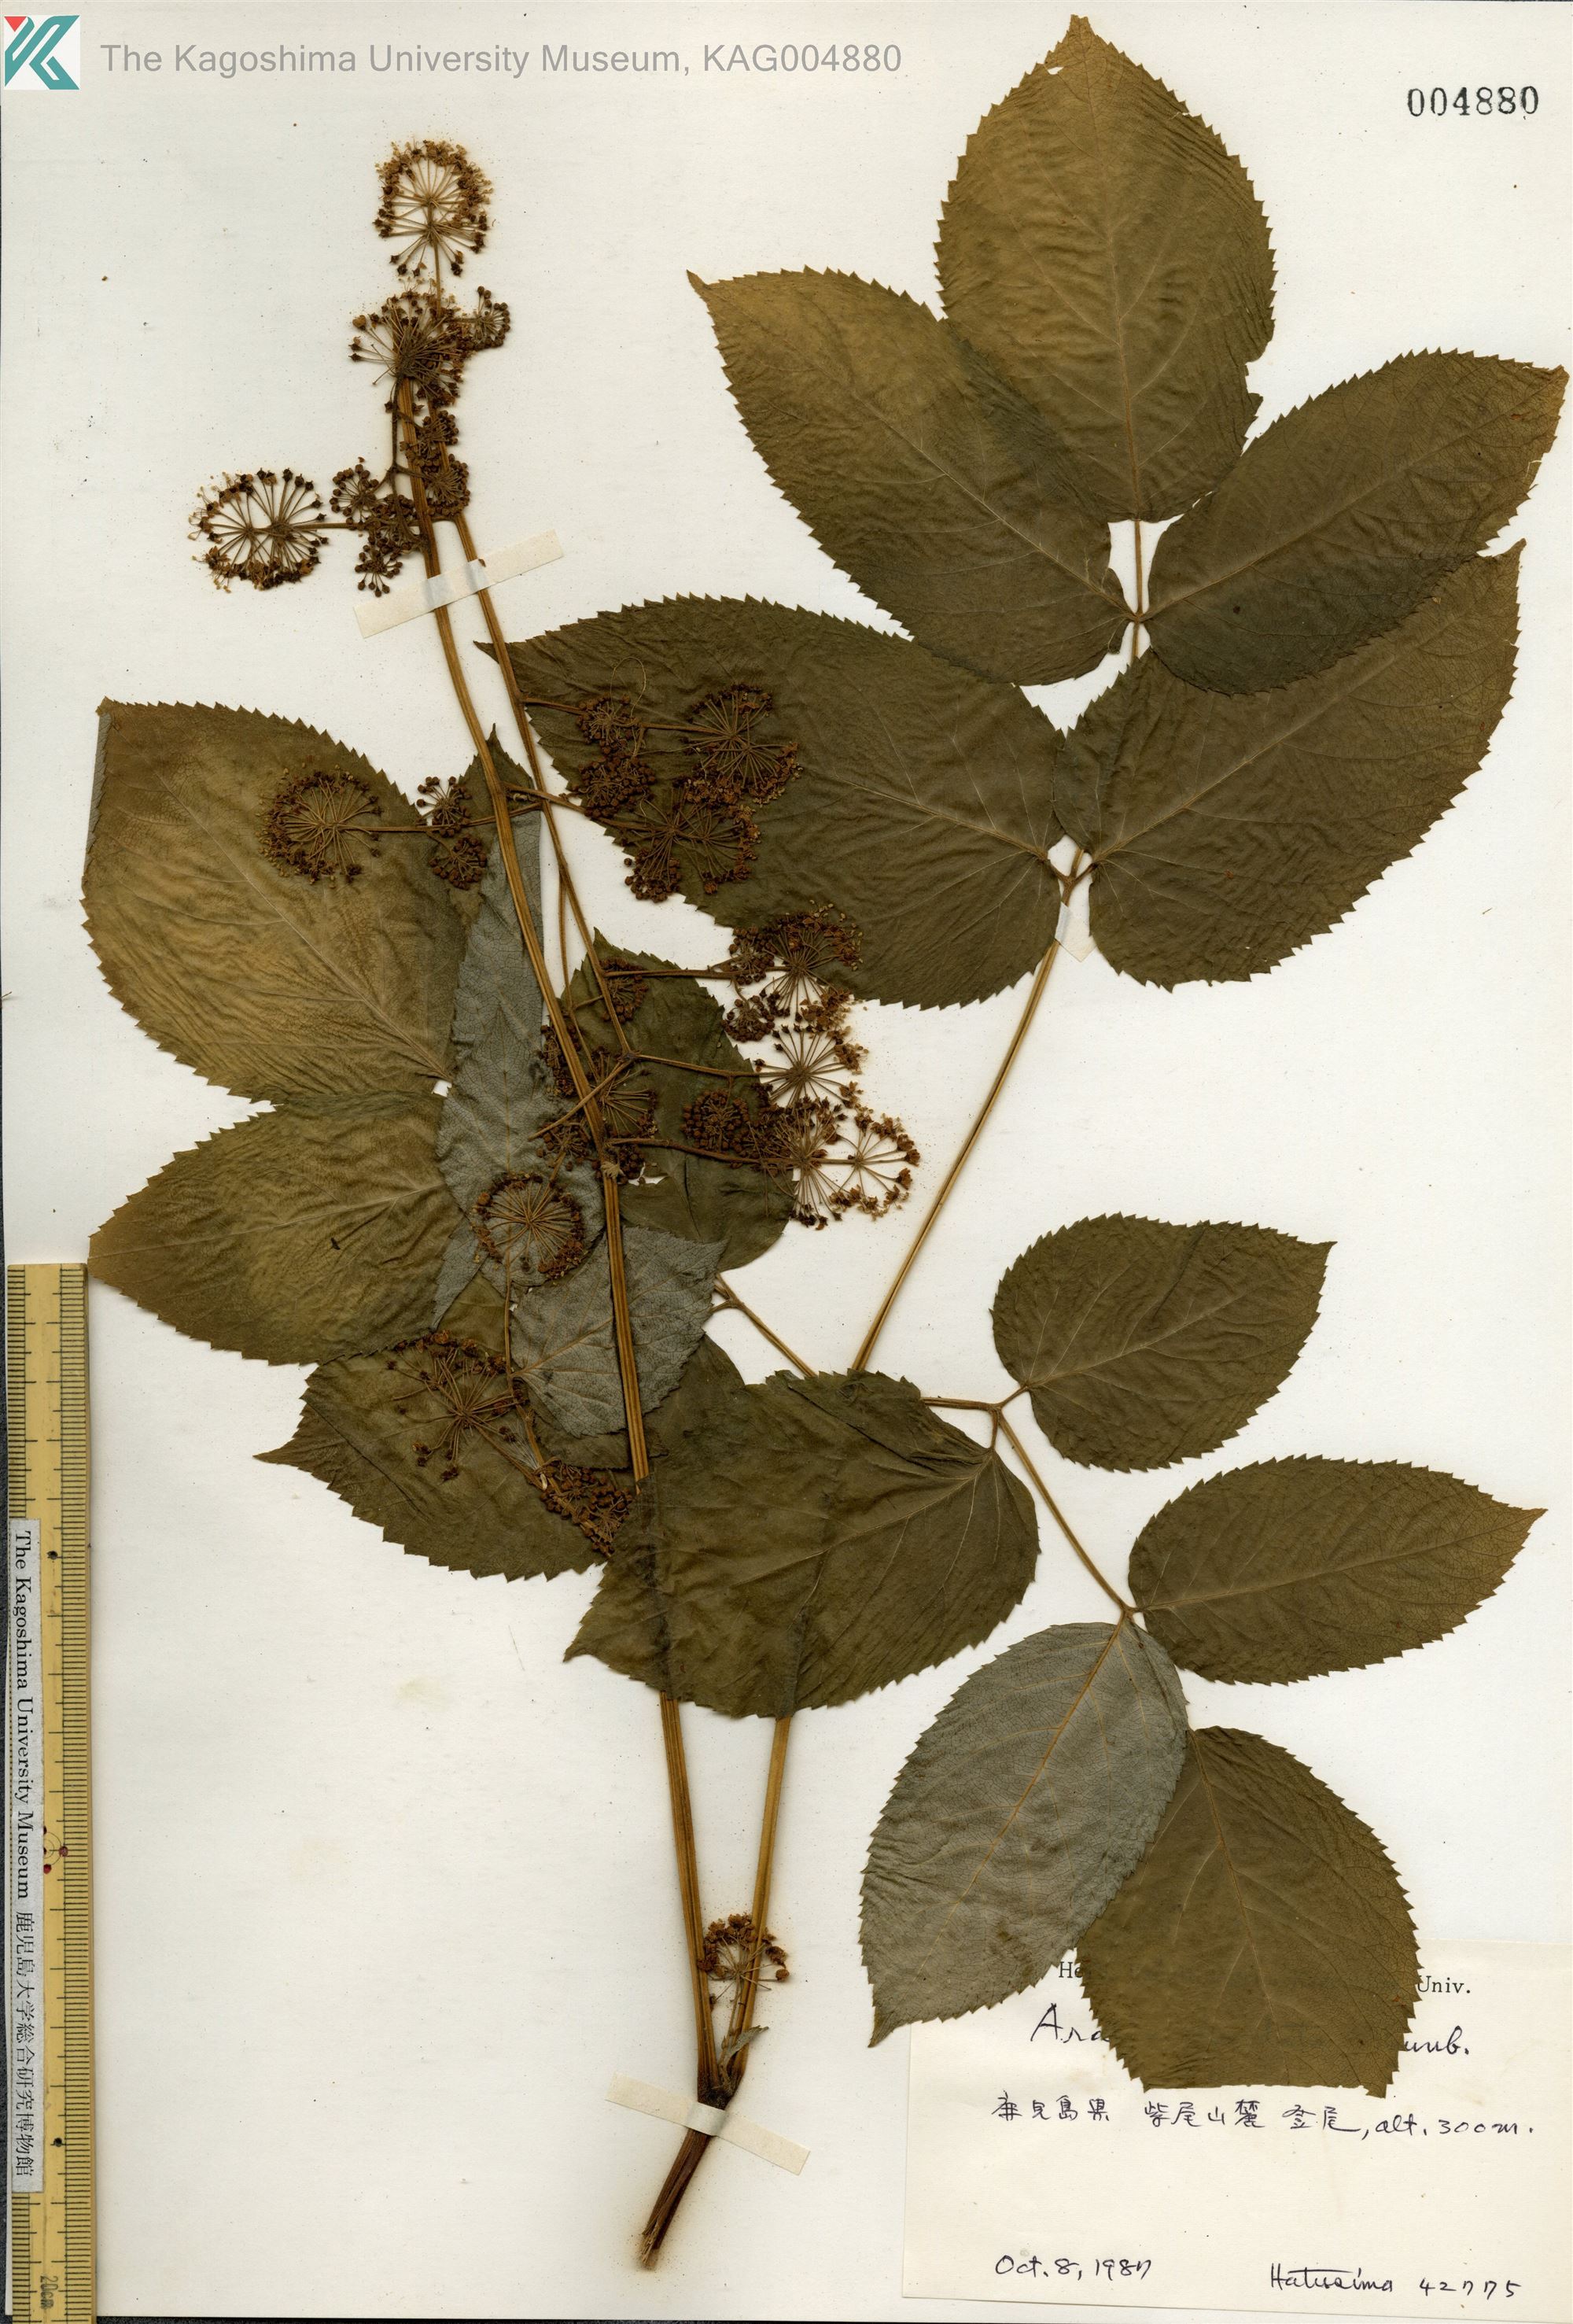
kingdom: Plantae
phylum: Tracheophyta
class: Magnoliopsida
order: Apiales
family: Araliaceae
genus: Aralia
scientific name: Aralia cordata
